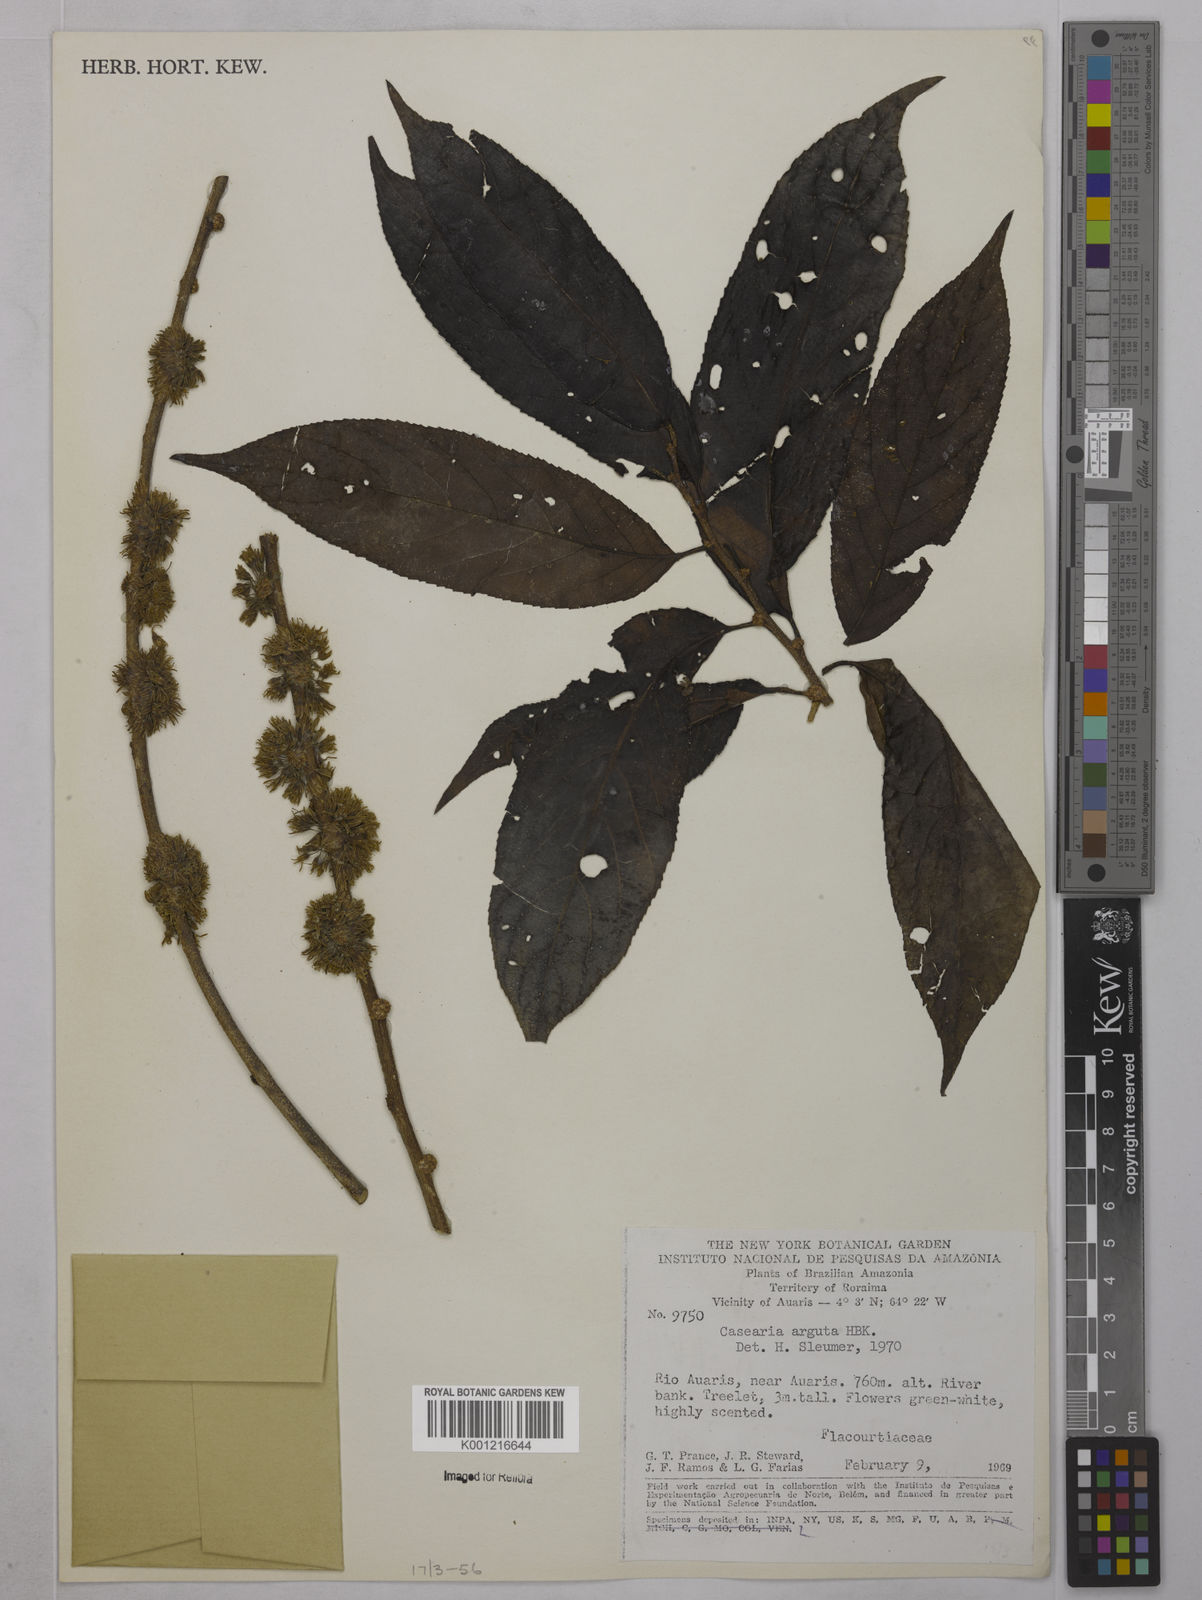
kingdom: Plantae
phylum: Tracheophyta
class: Magnoliopsida
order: Malpighiales
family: Salicaceae
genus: Casearia
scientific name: Casearia rupestris
